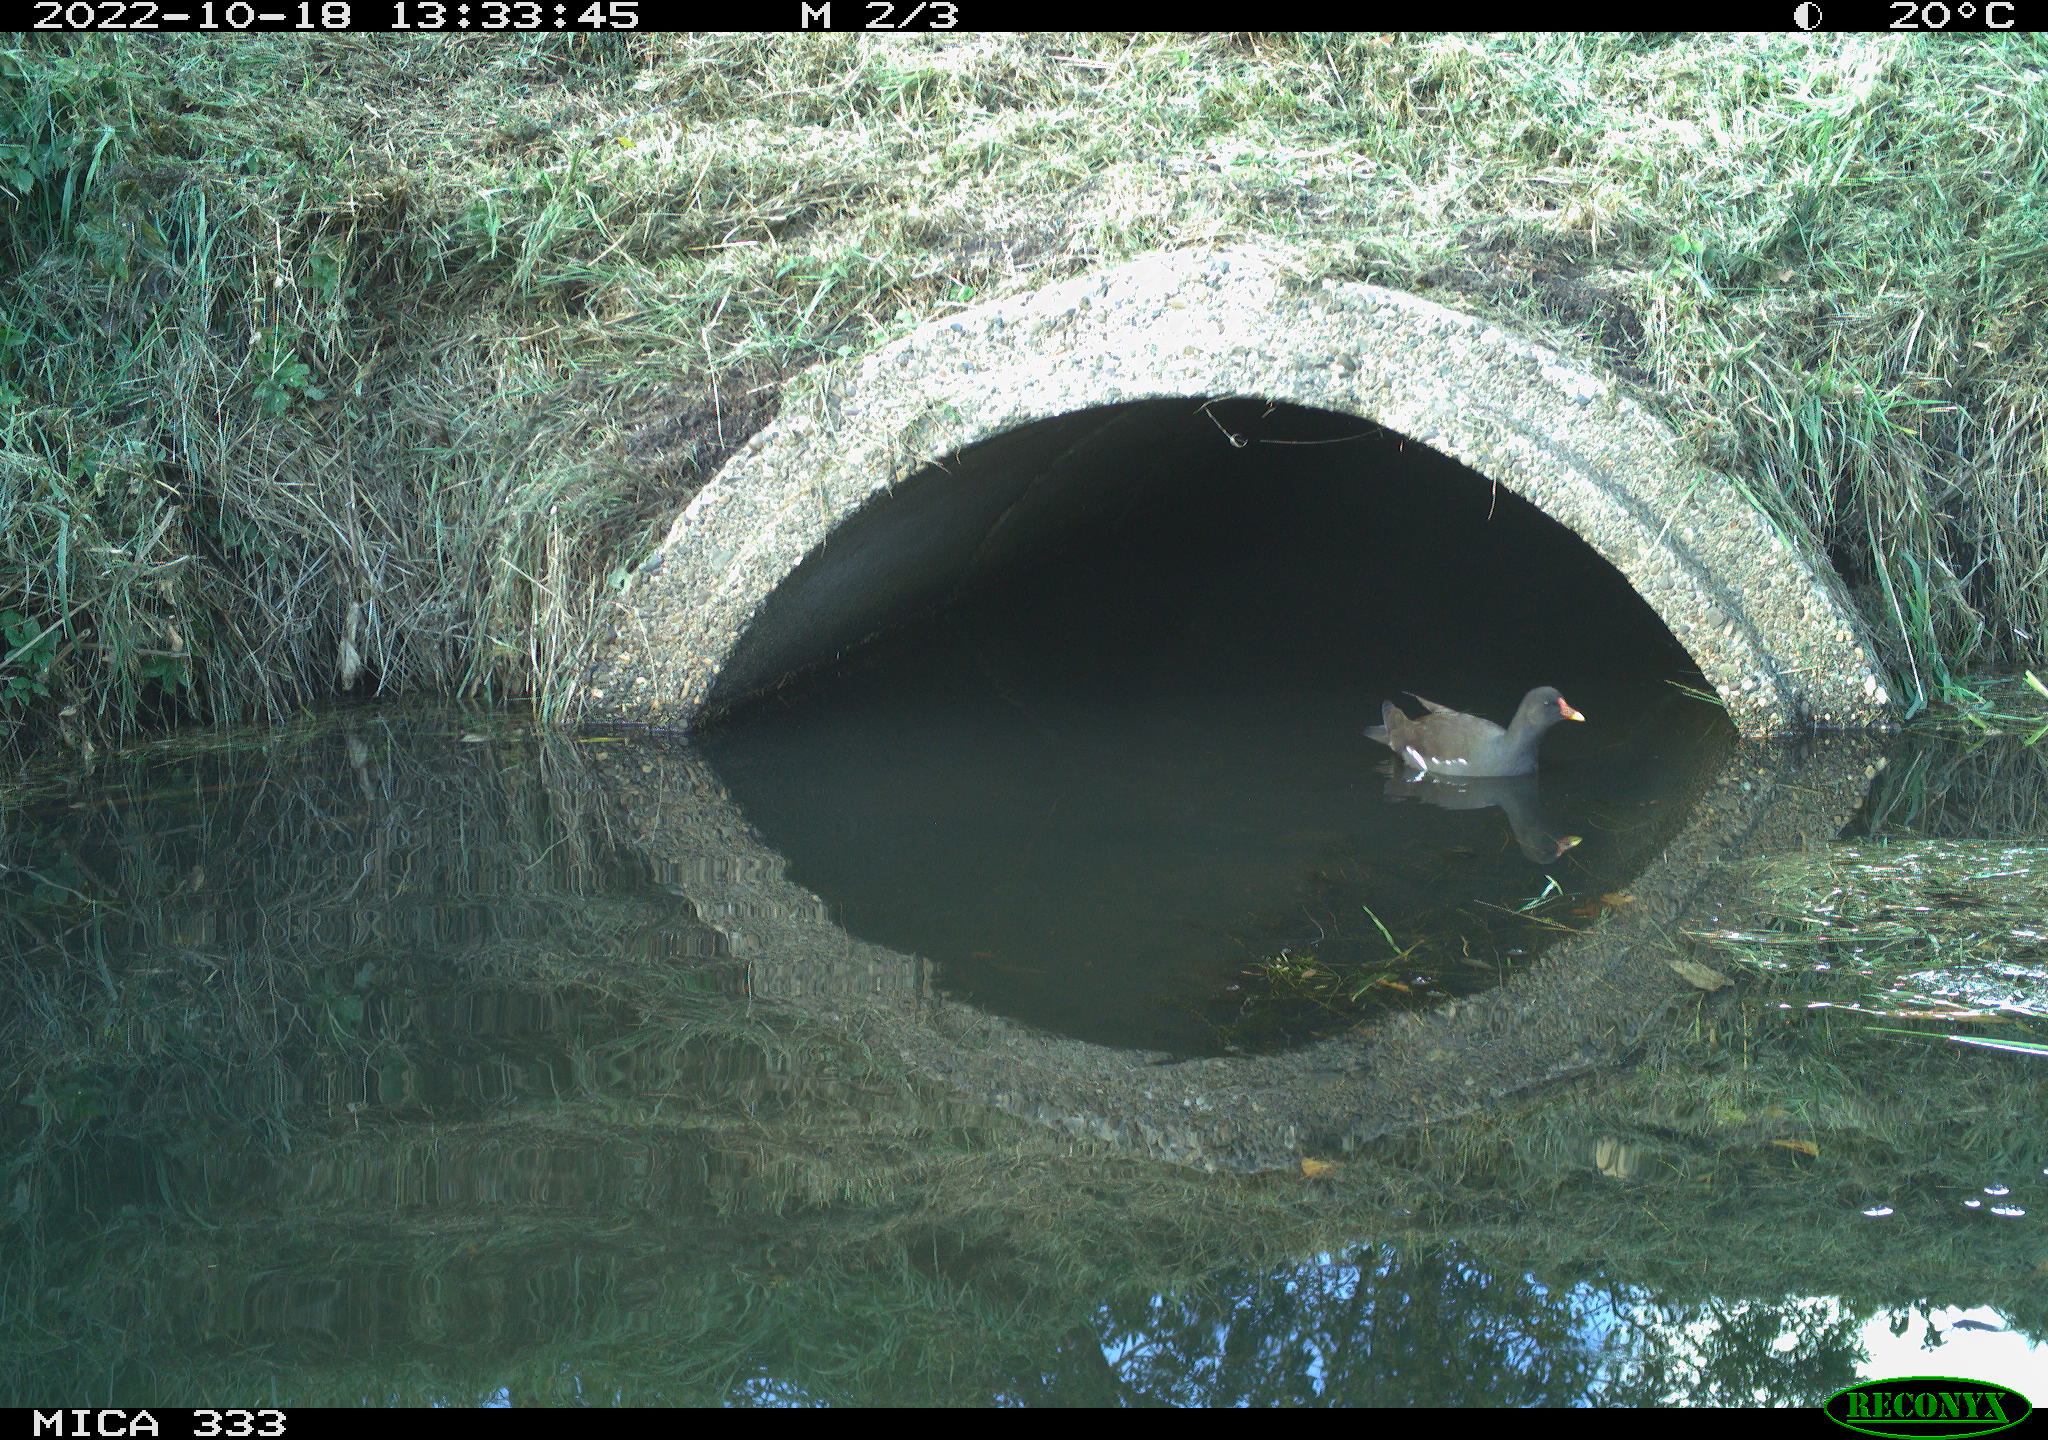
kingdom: Animalia
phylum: Chordata
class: Aves
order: Gruiformes
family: Rallidae
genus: Gallinula
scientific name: Gallinula chloropus
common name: Common moorhen
